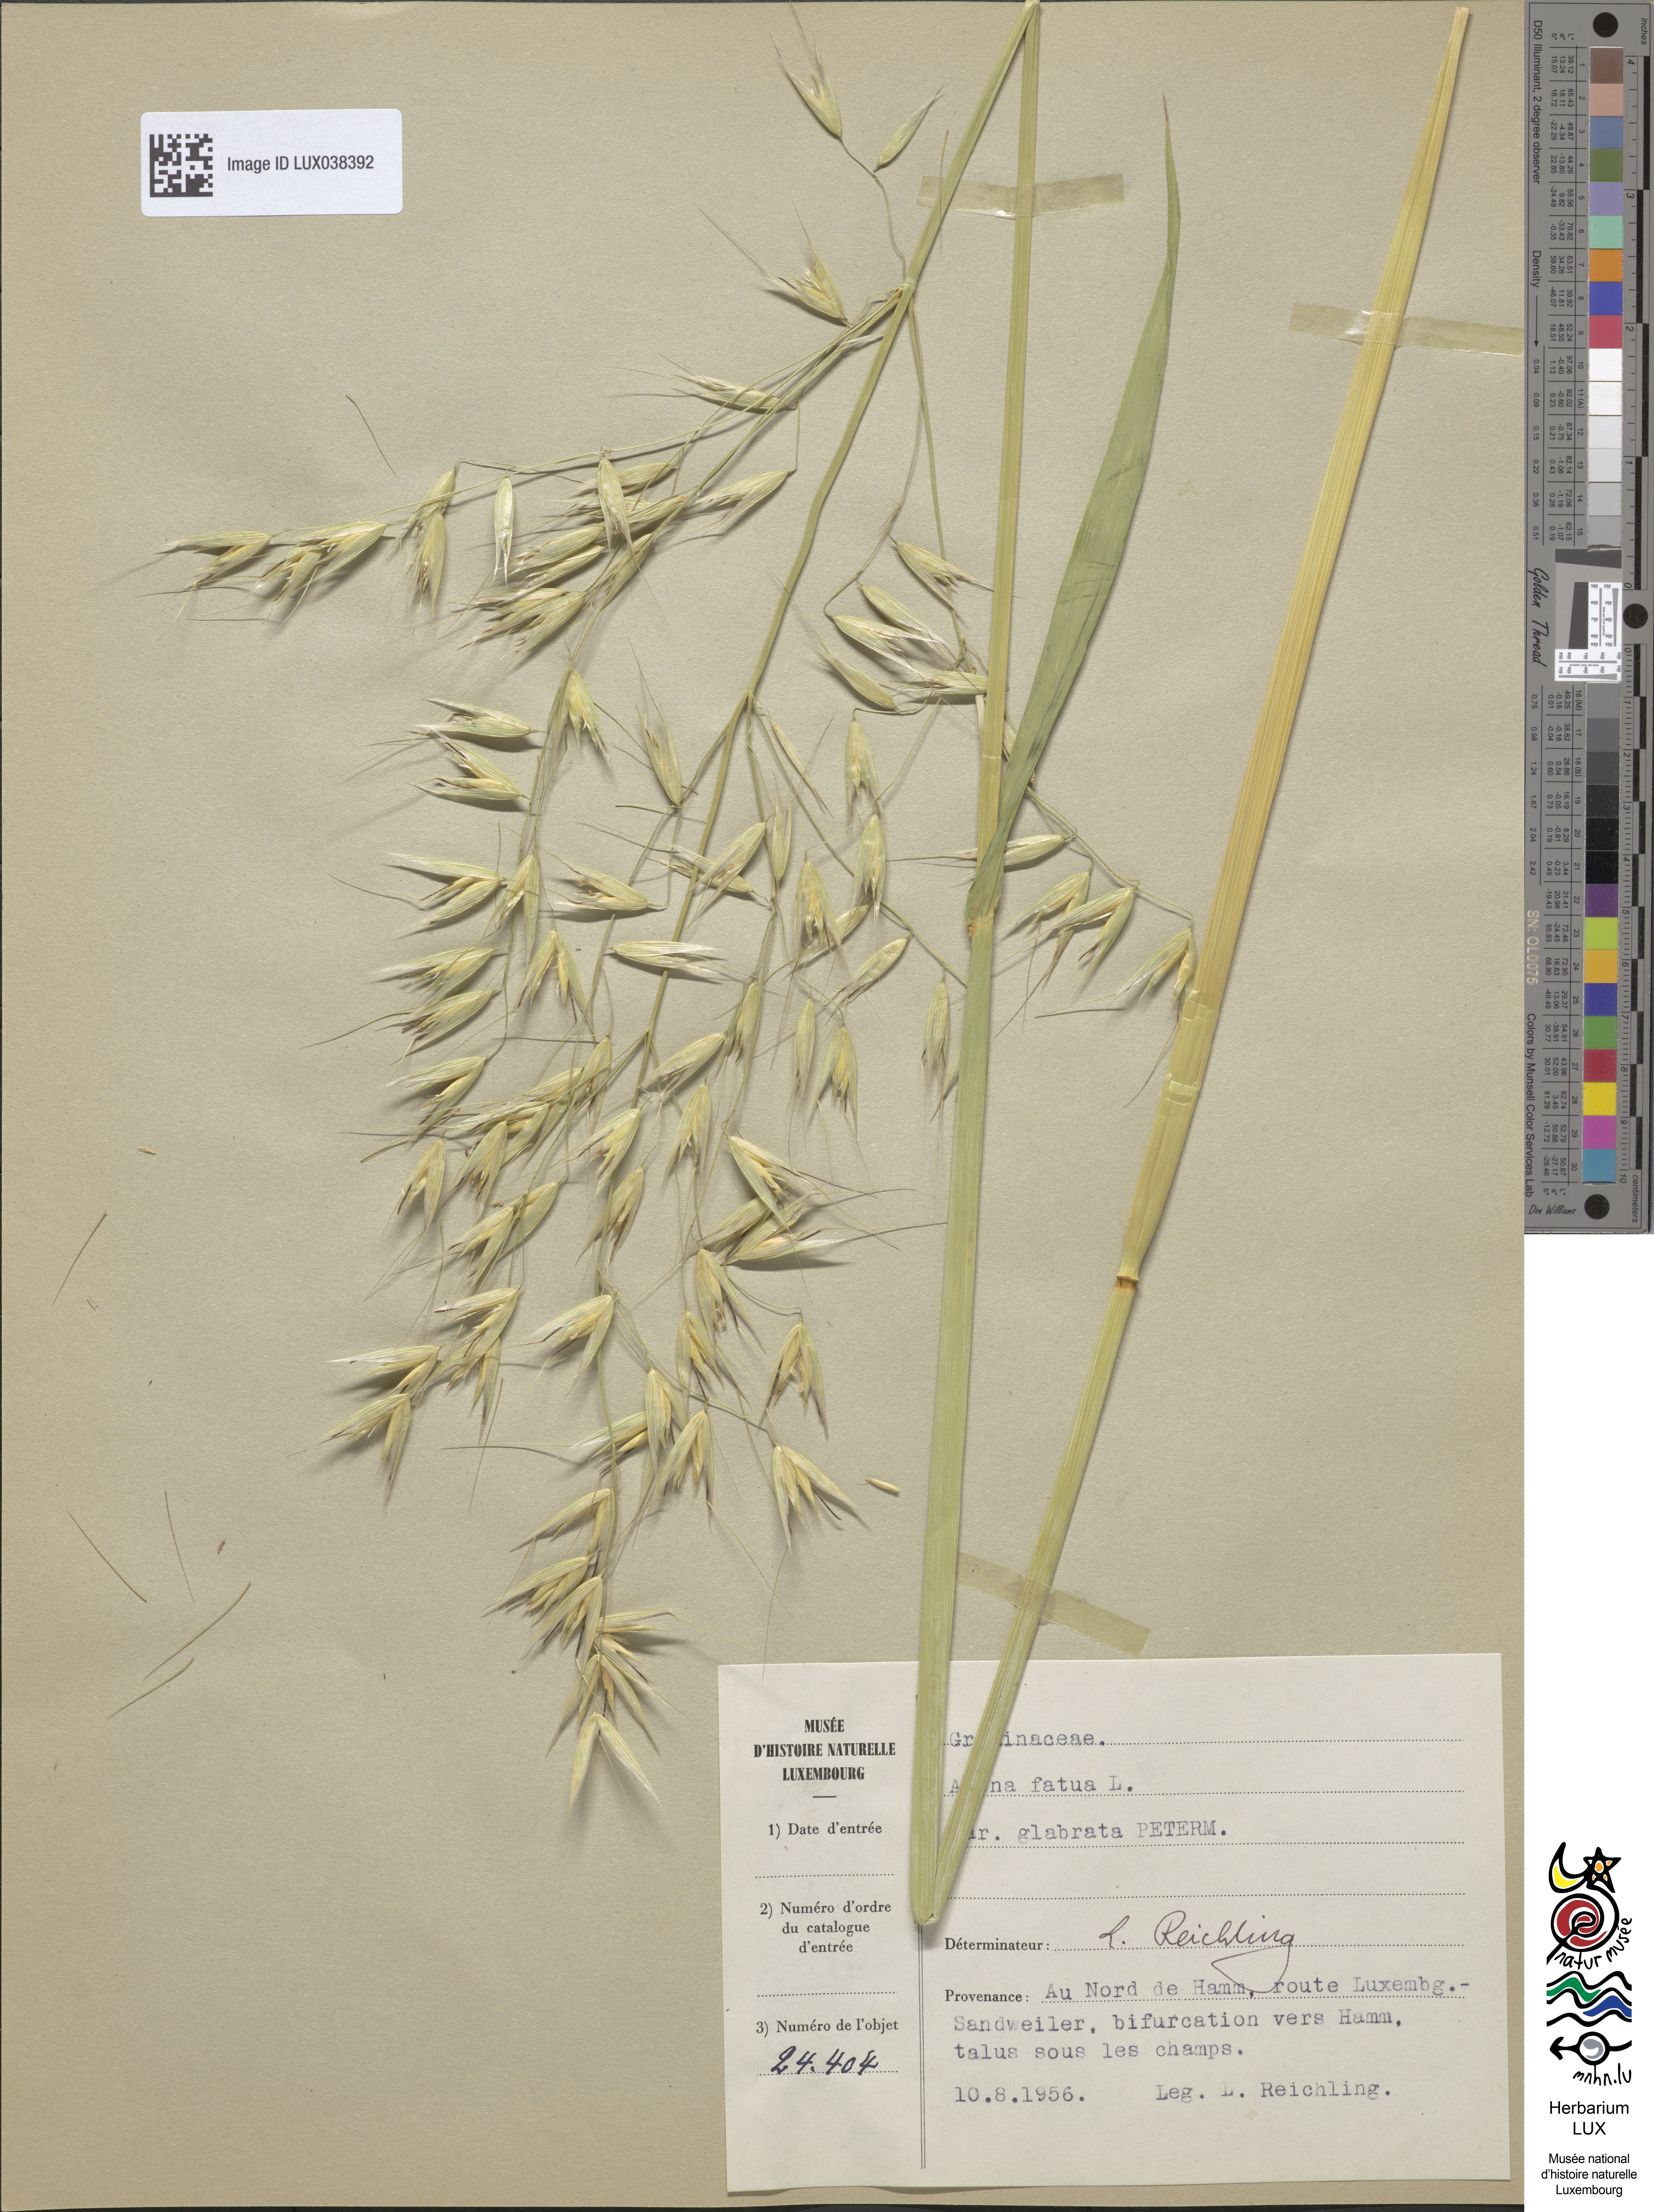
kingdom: Plantae
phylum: Tracheophyta
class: Liliopsida
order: Poales
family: Poaceae
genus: Avena
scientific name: Avena fatua
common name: Wild oat
